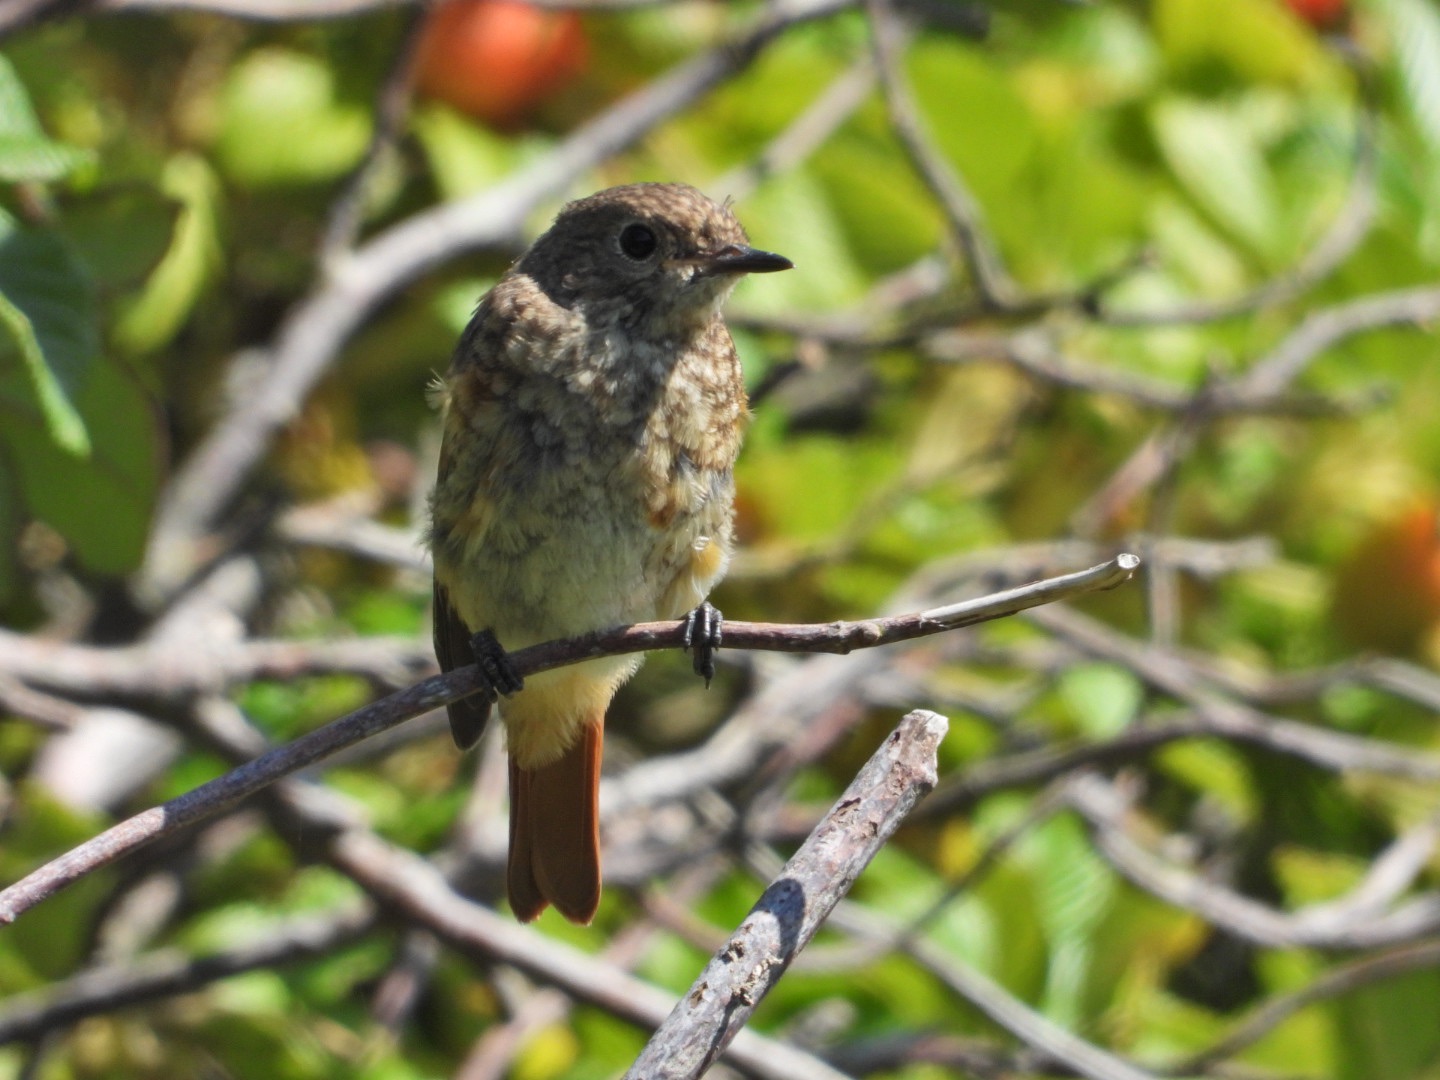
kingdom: Animalia
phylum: Chordata
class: Aves
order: Passeriformes
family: Muscicapidae
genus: Phoenicurus
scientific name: Phoenicurus phoenicurus
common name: Rødstjert
